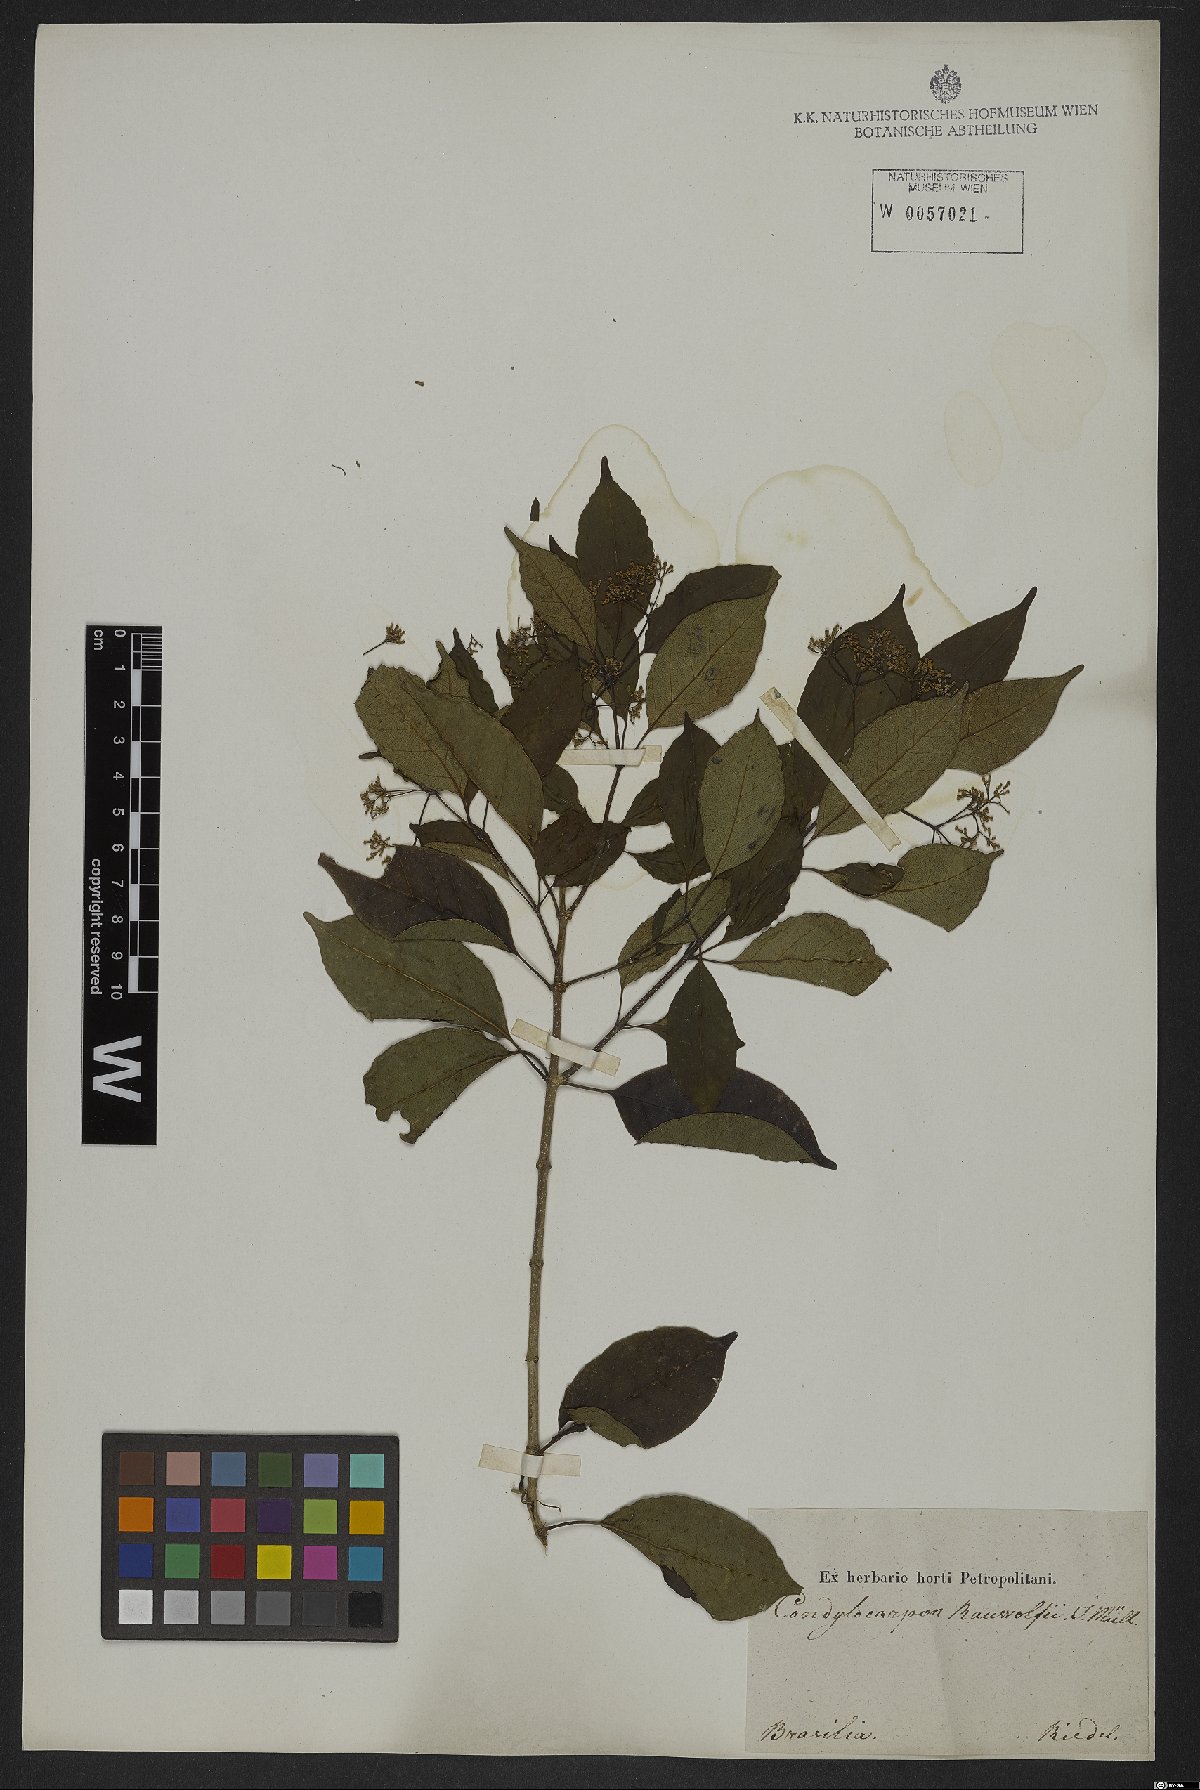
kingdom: Plantae
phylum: Tracheophyta
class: Magnoliopsida
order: Gentianales
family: Apocynaceae
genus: Condylocarpon
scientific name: Condylocarpon isthmicum
